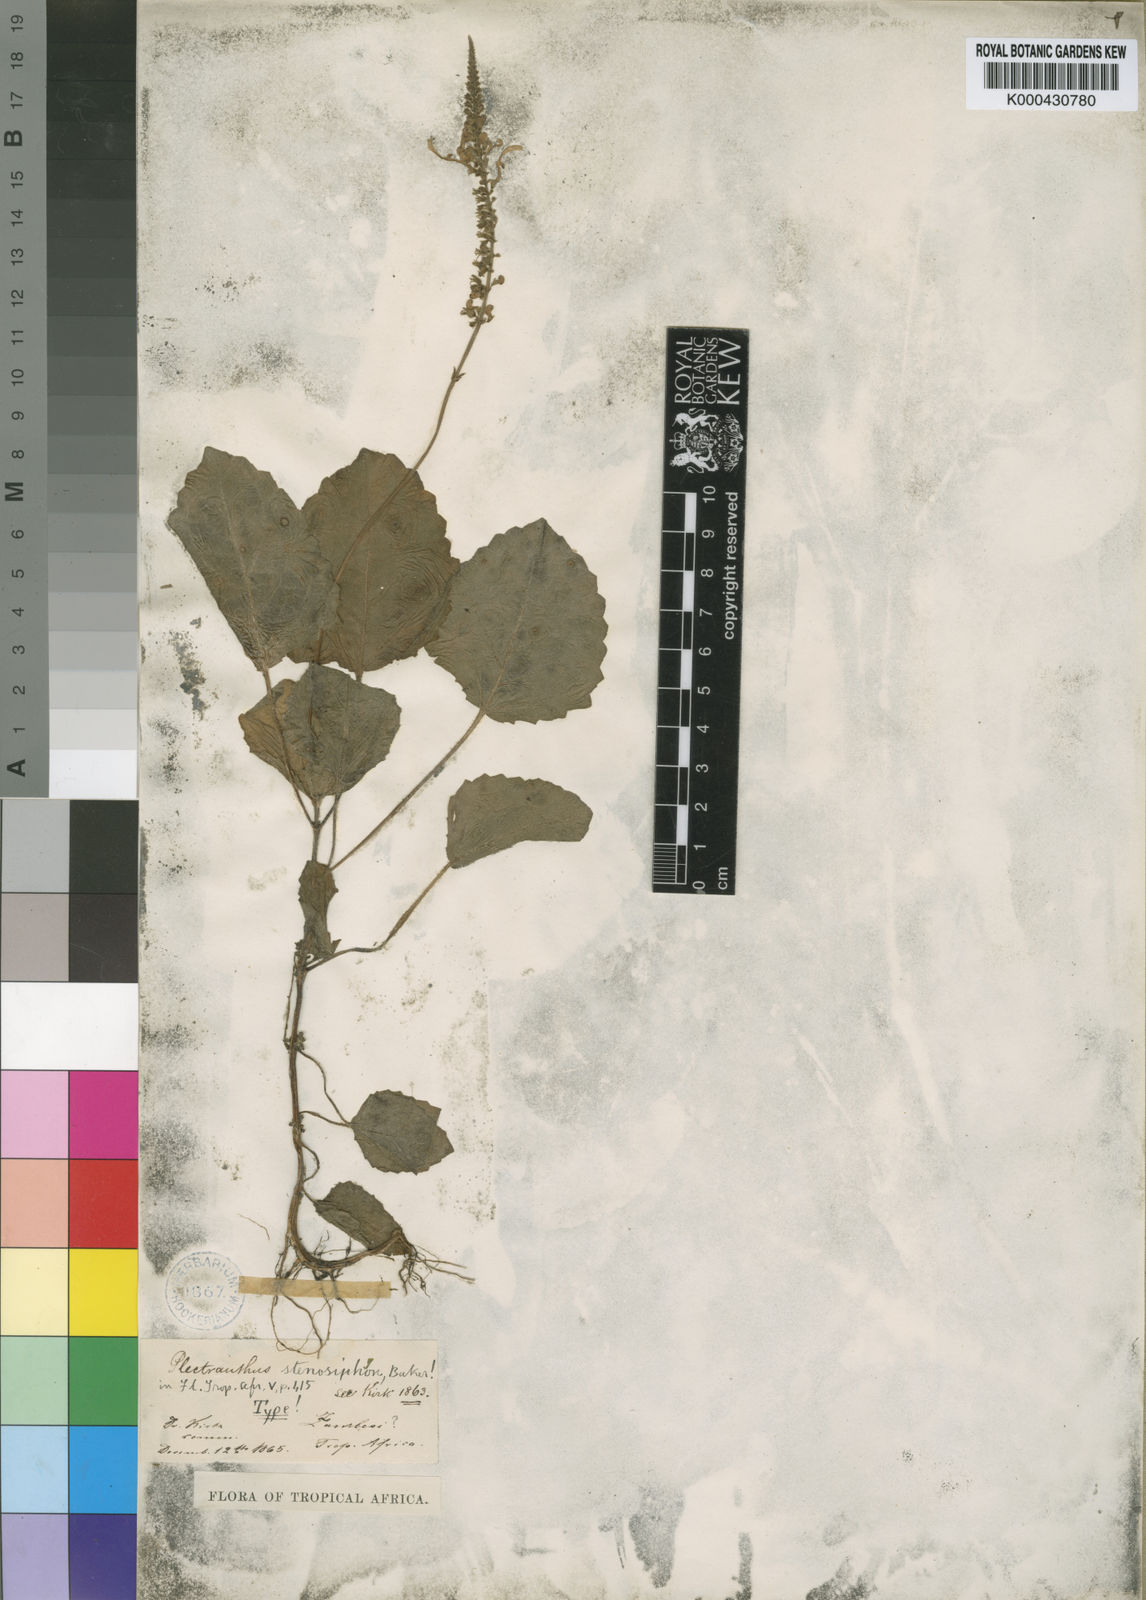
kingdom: Plantae
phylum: Tracheophyta
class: Magnoliopsida
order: Lamiales
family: Lamiaceae
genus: Equilabium
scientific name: Equilabium stenosiphon
